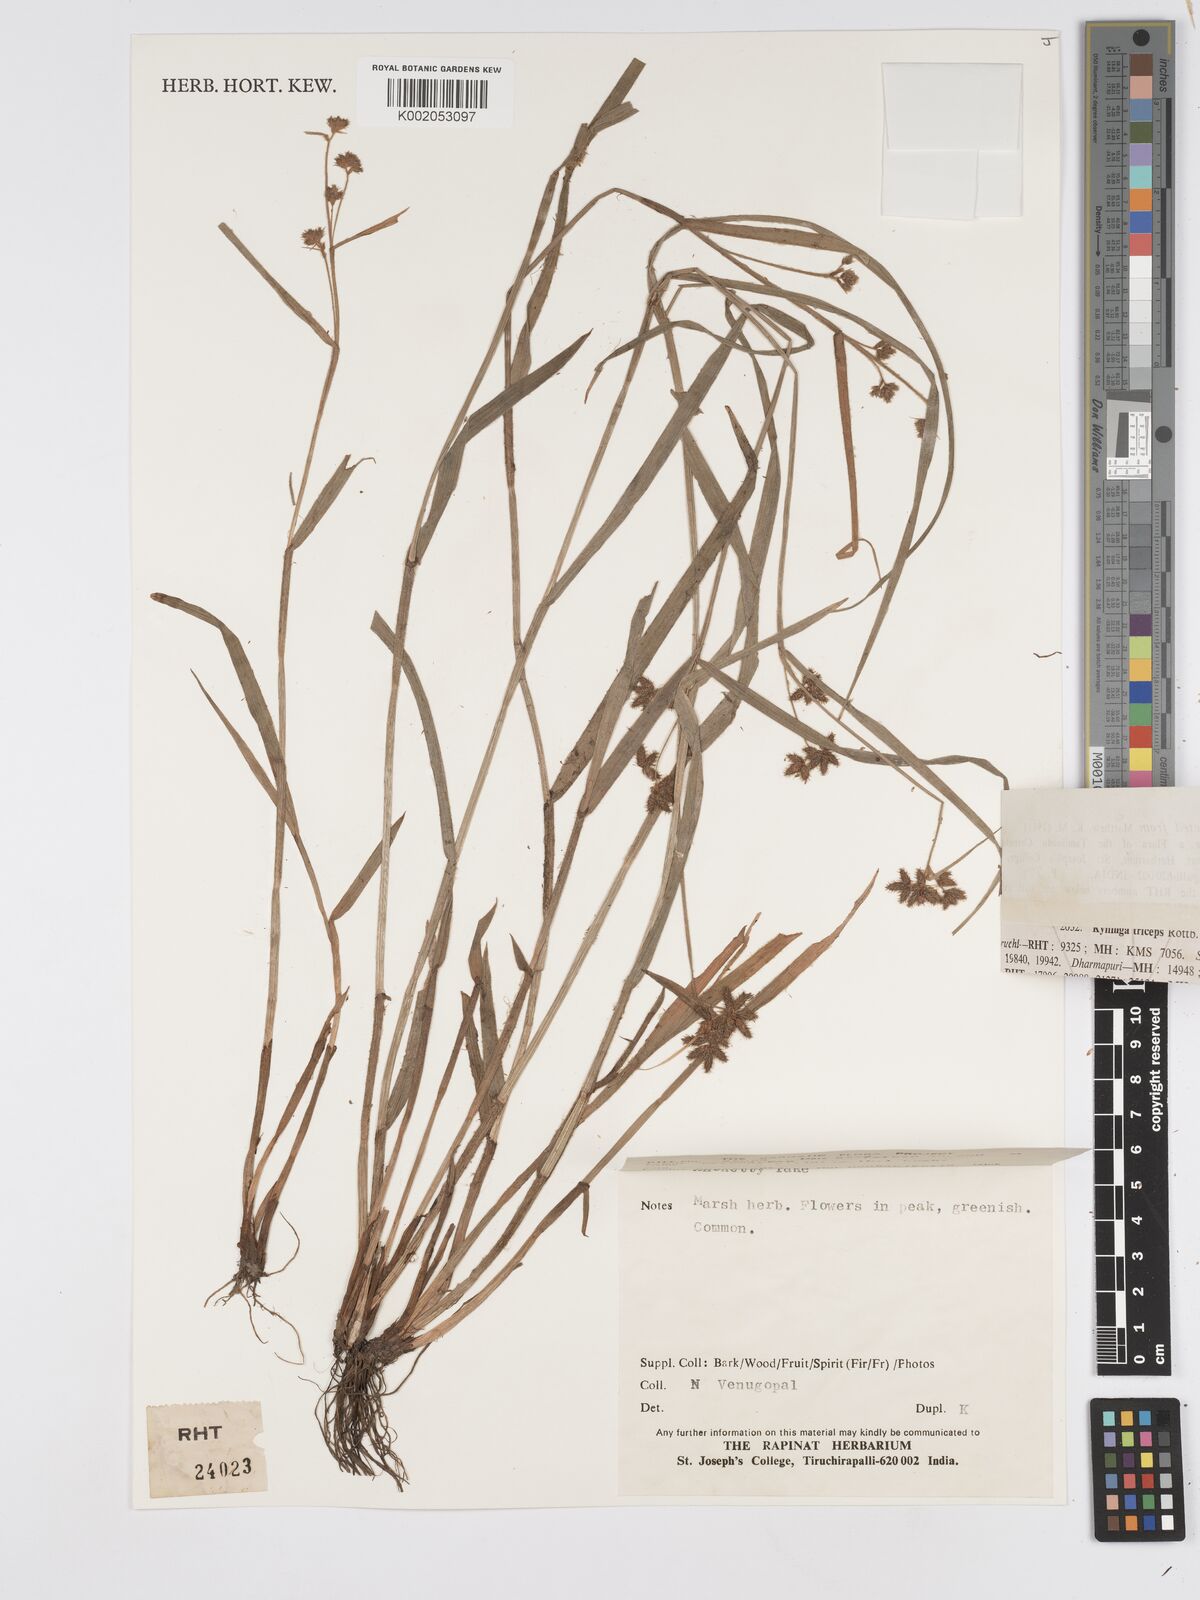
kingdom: Plantae
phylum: Tracheophyta
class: Liliopsida
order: Poales
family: Cyperaceae
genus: Fuirena
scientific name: Fuirena ciliaris
